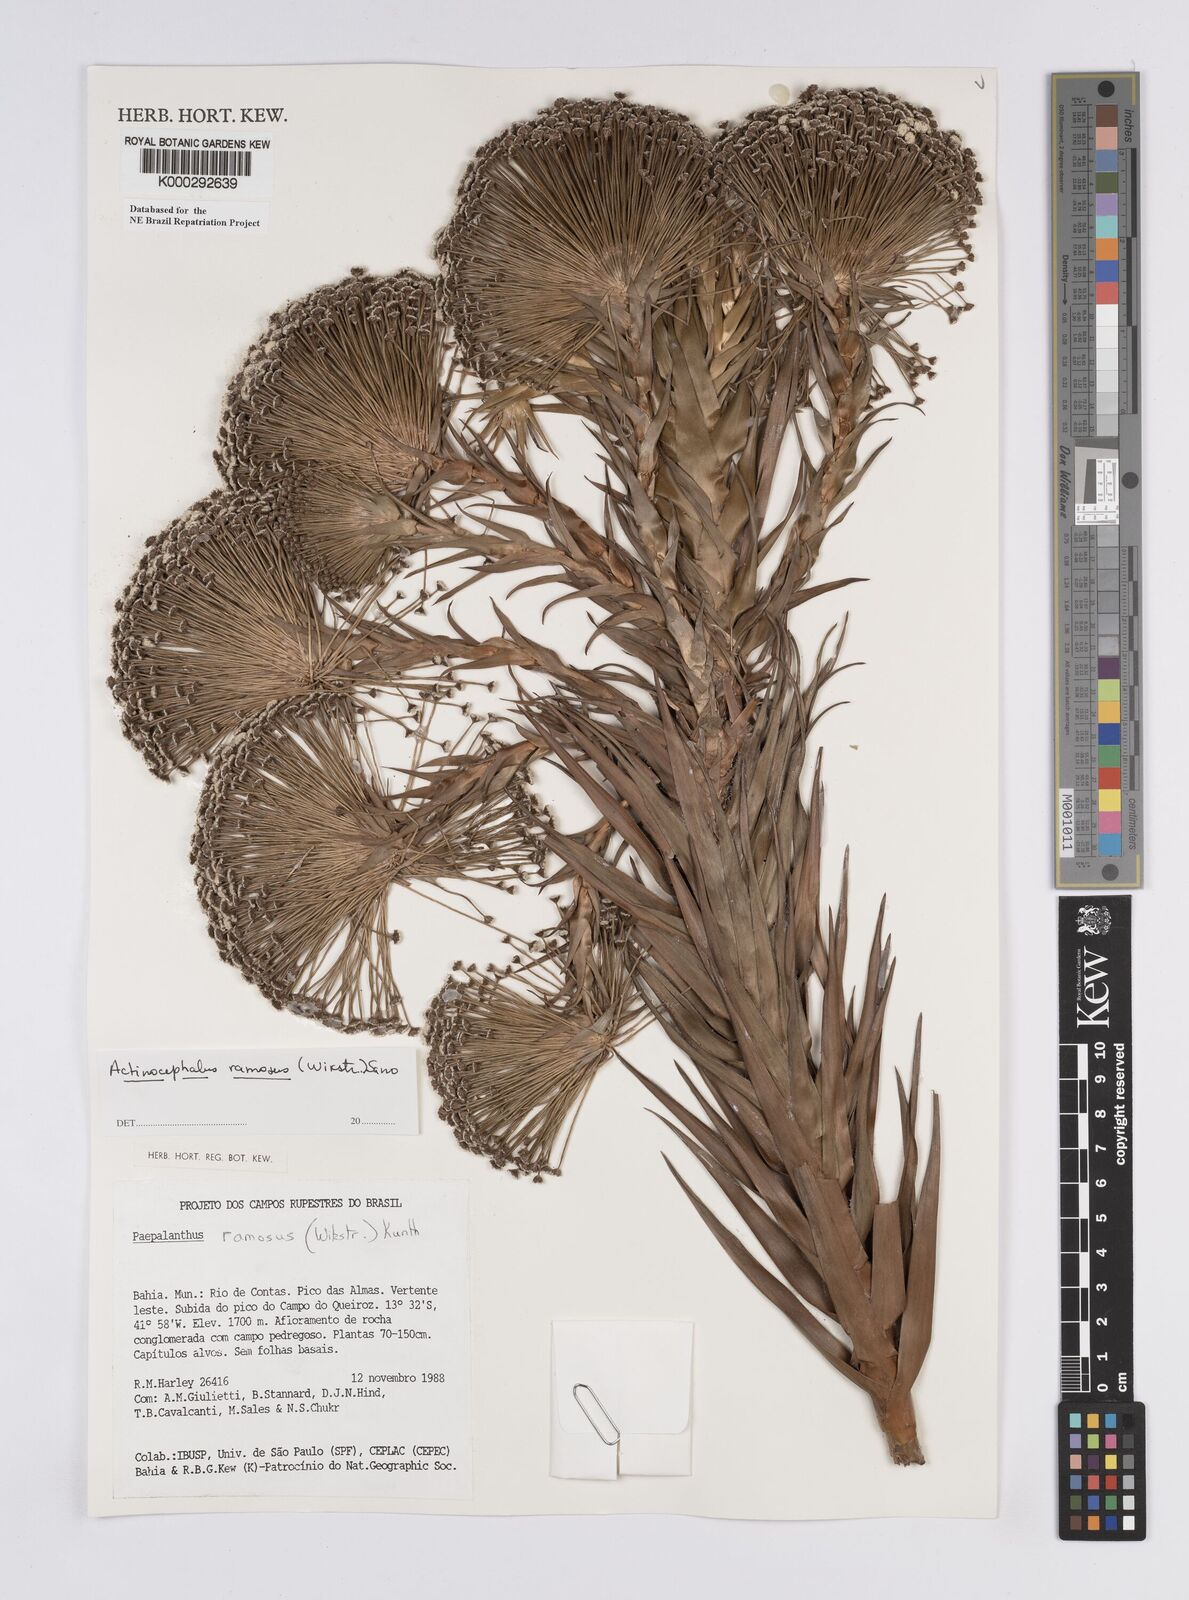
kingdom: Plantae
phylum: Tracheophyta
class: Liliopsida
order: Poales
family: Eriocaulaceae
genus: Paepalanthus
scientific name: Paepalanthus ramosus
